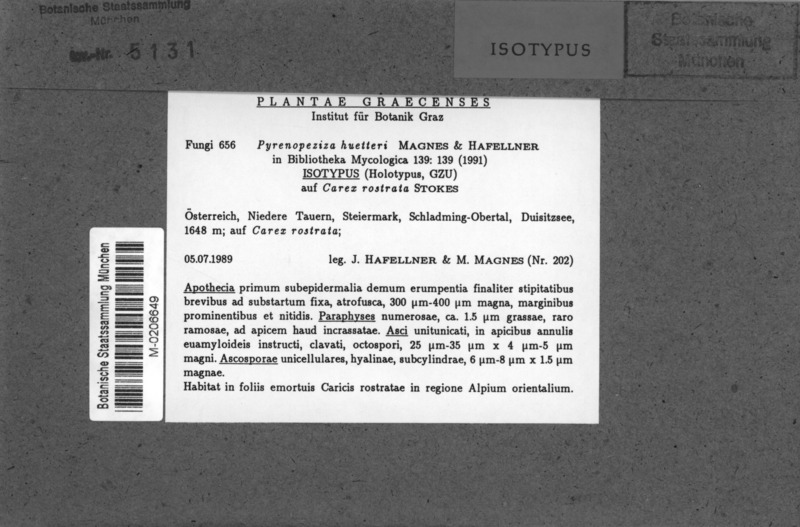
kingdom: Fungi
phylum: Ascomycota
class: Leotiomycetes
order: Helotiales
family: Ploettnerulaceae
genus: Pyrenopeziza
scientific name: Pyrenopeziza huetteri
